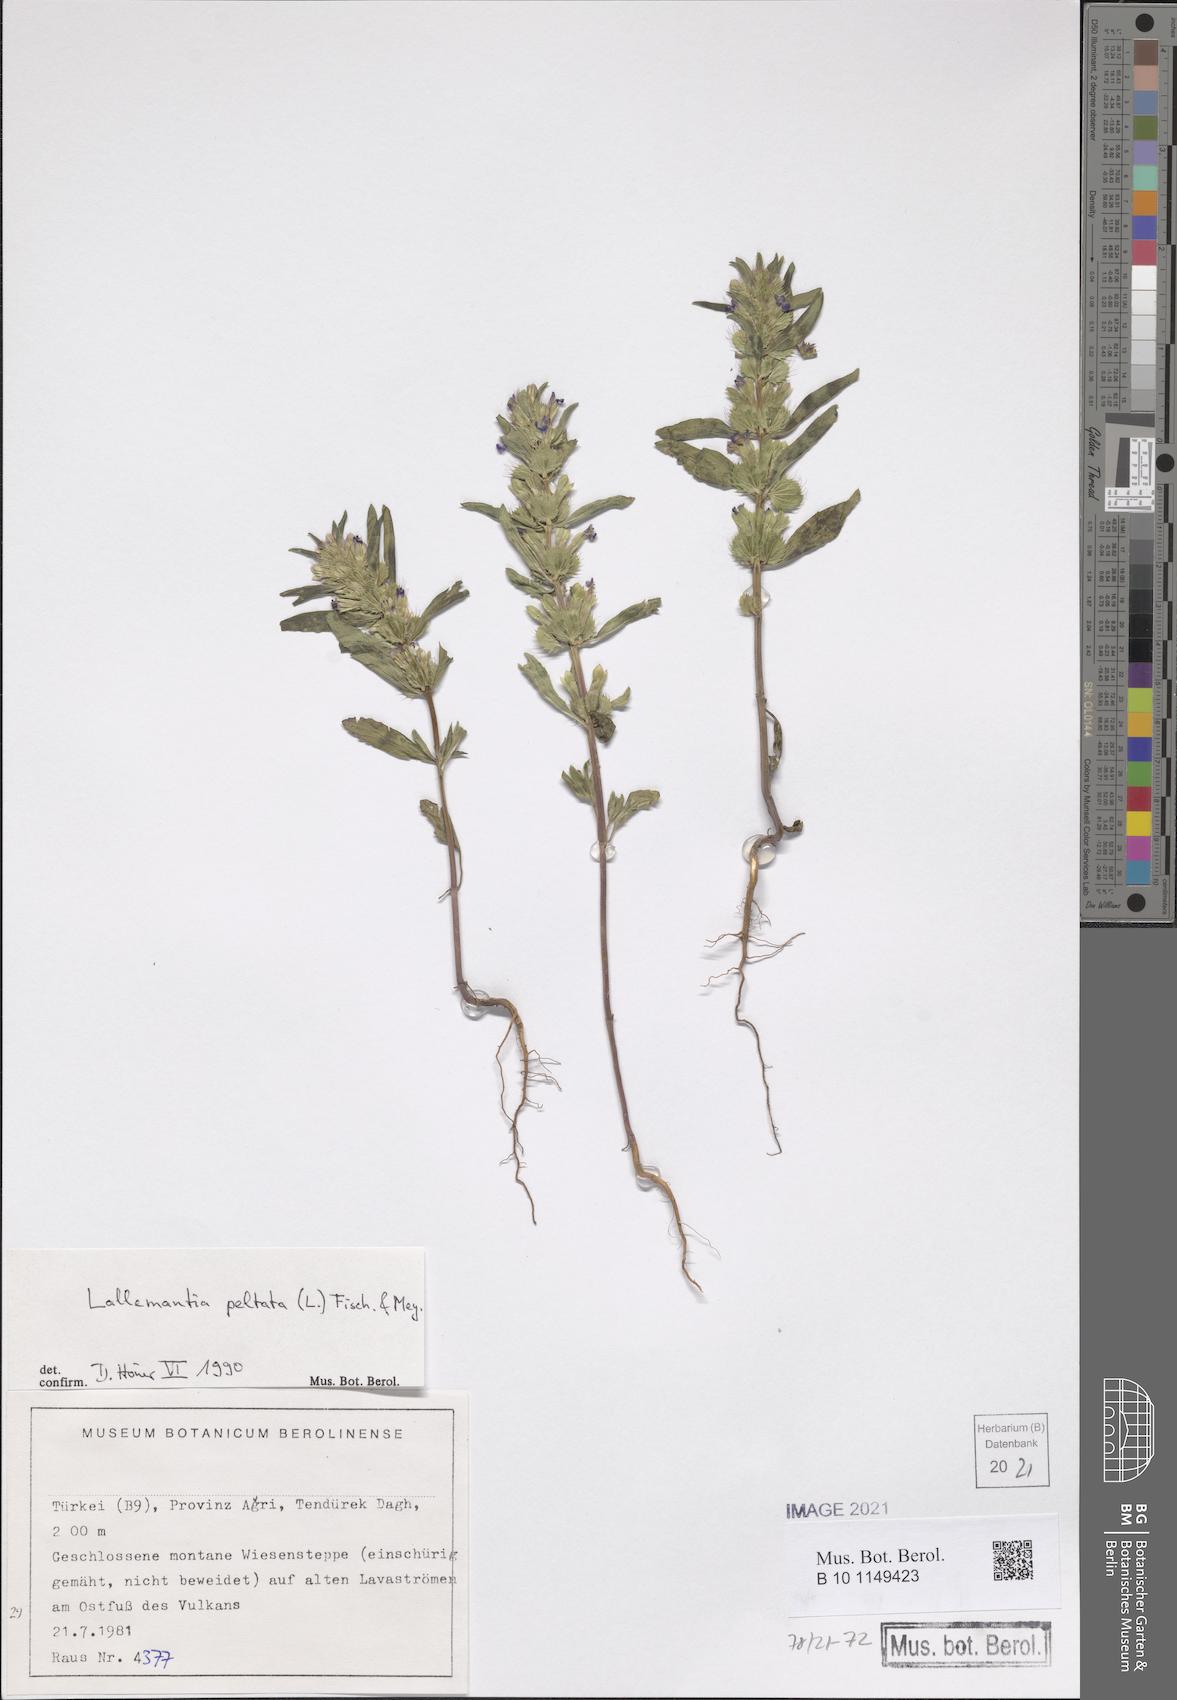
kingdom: Plantae
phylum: Tracheophyta
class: Magnoliopsida
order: Lamiales
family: Lamiaceae
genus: Lallemantia
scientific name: Lallemantia peltata
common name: Lion's heart
